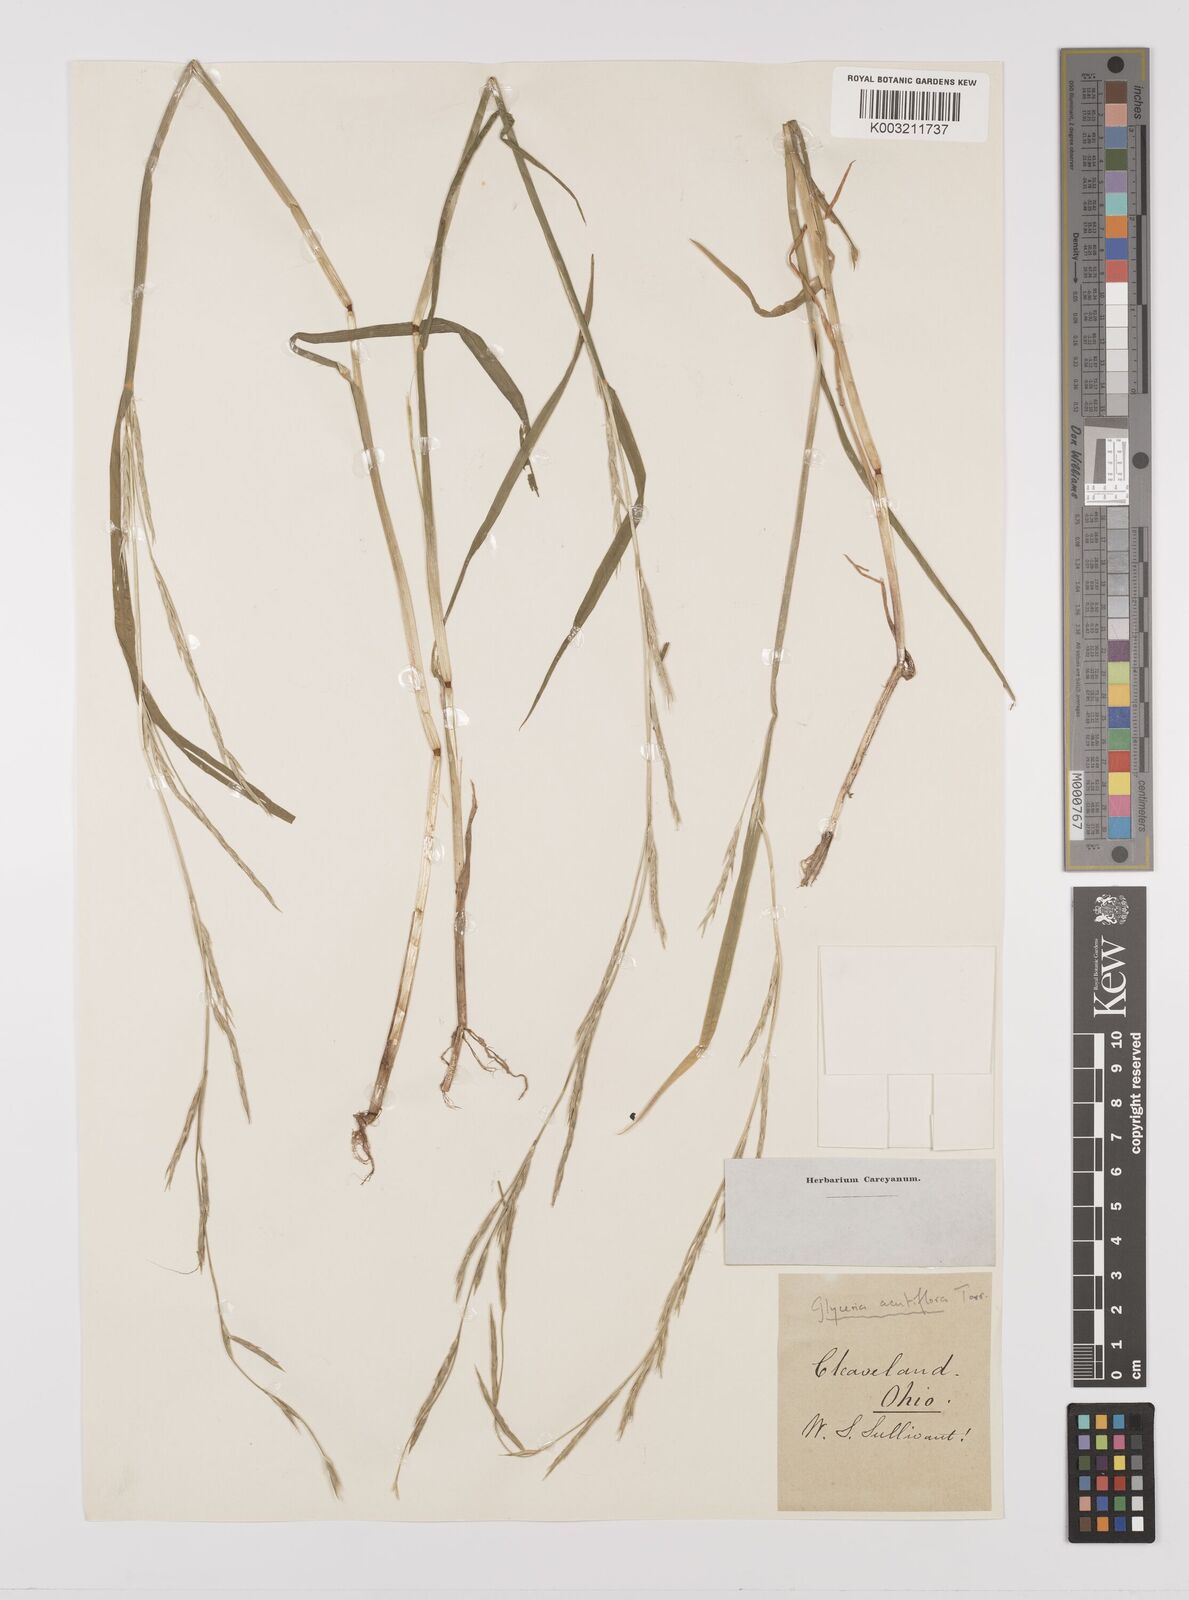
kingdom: Plantae
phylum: Tracheophyta
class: Liliopsida
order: Poales
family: Poaceae
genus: Glyceria
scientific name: Glyceria acutiflora
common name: Sharp-glumed manna-grass
